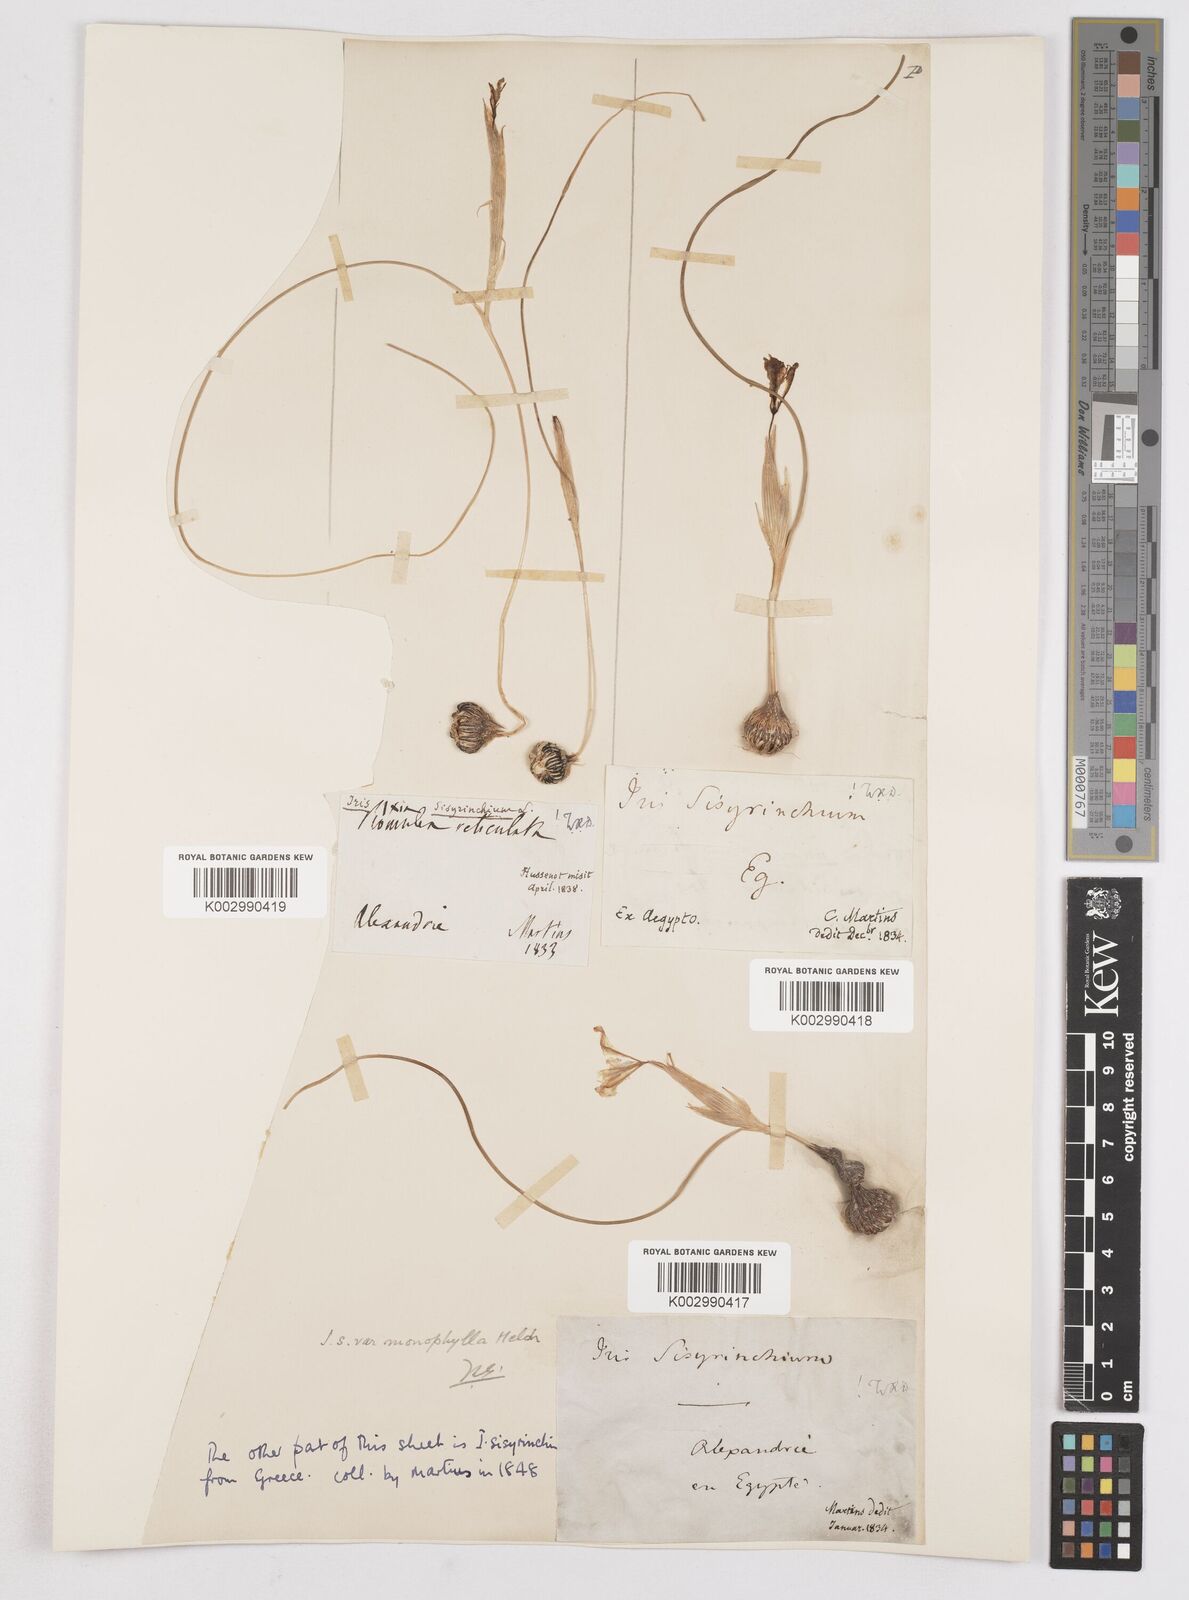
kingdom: Plantae
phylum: Tracheophyta
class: Liliopsida
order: Asparagales
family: Iridaceae
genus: Moraea
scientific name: Moraea
